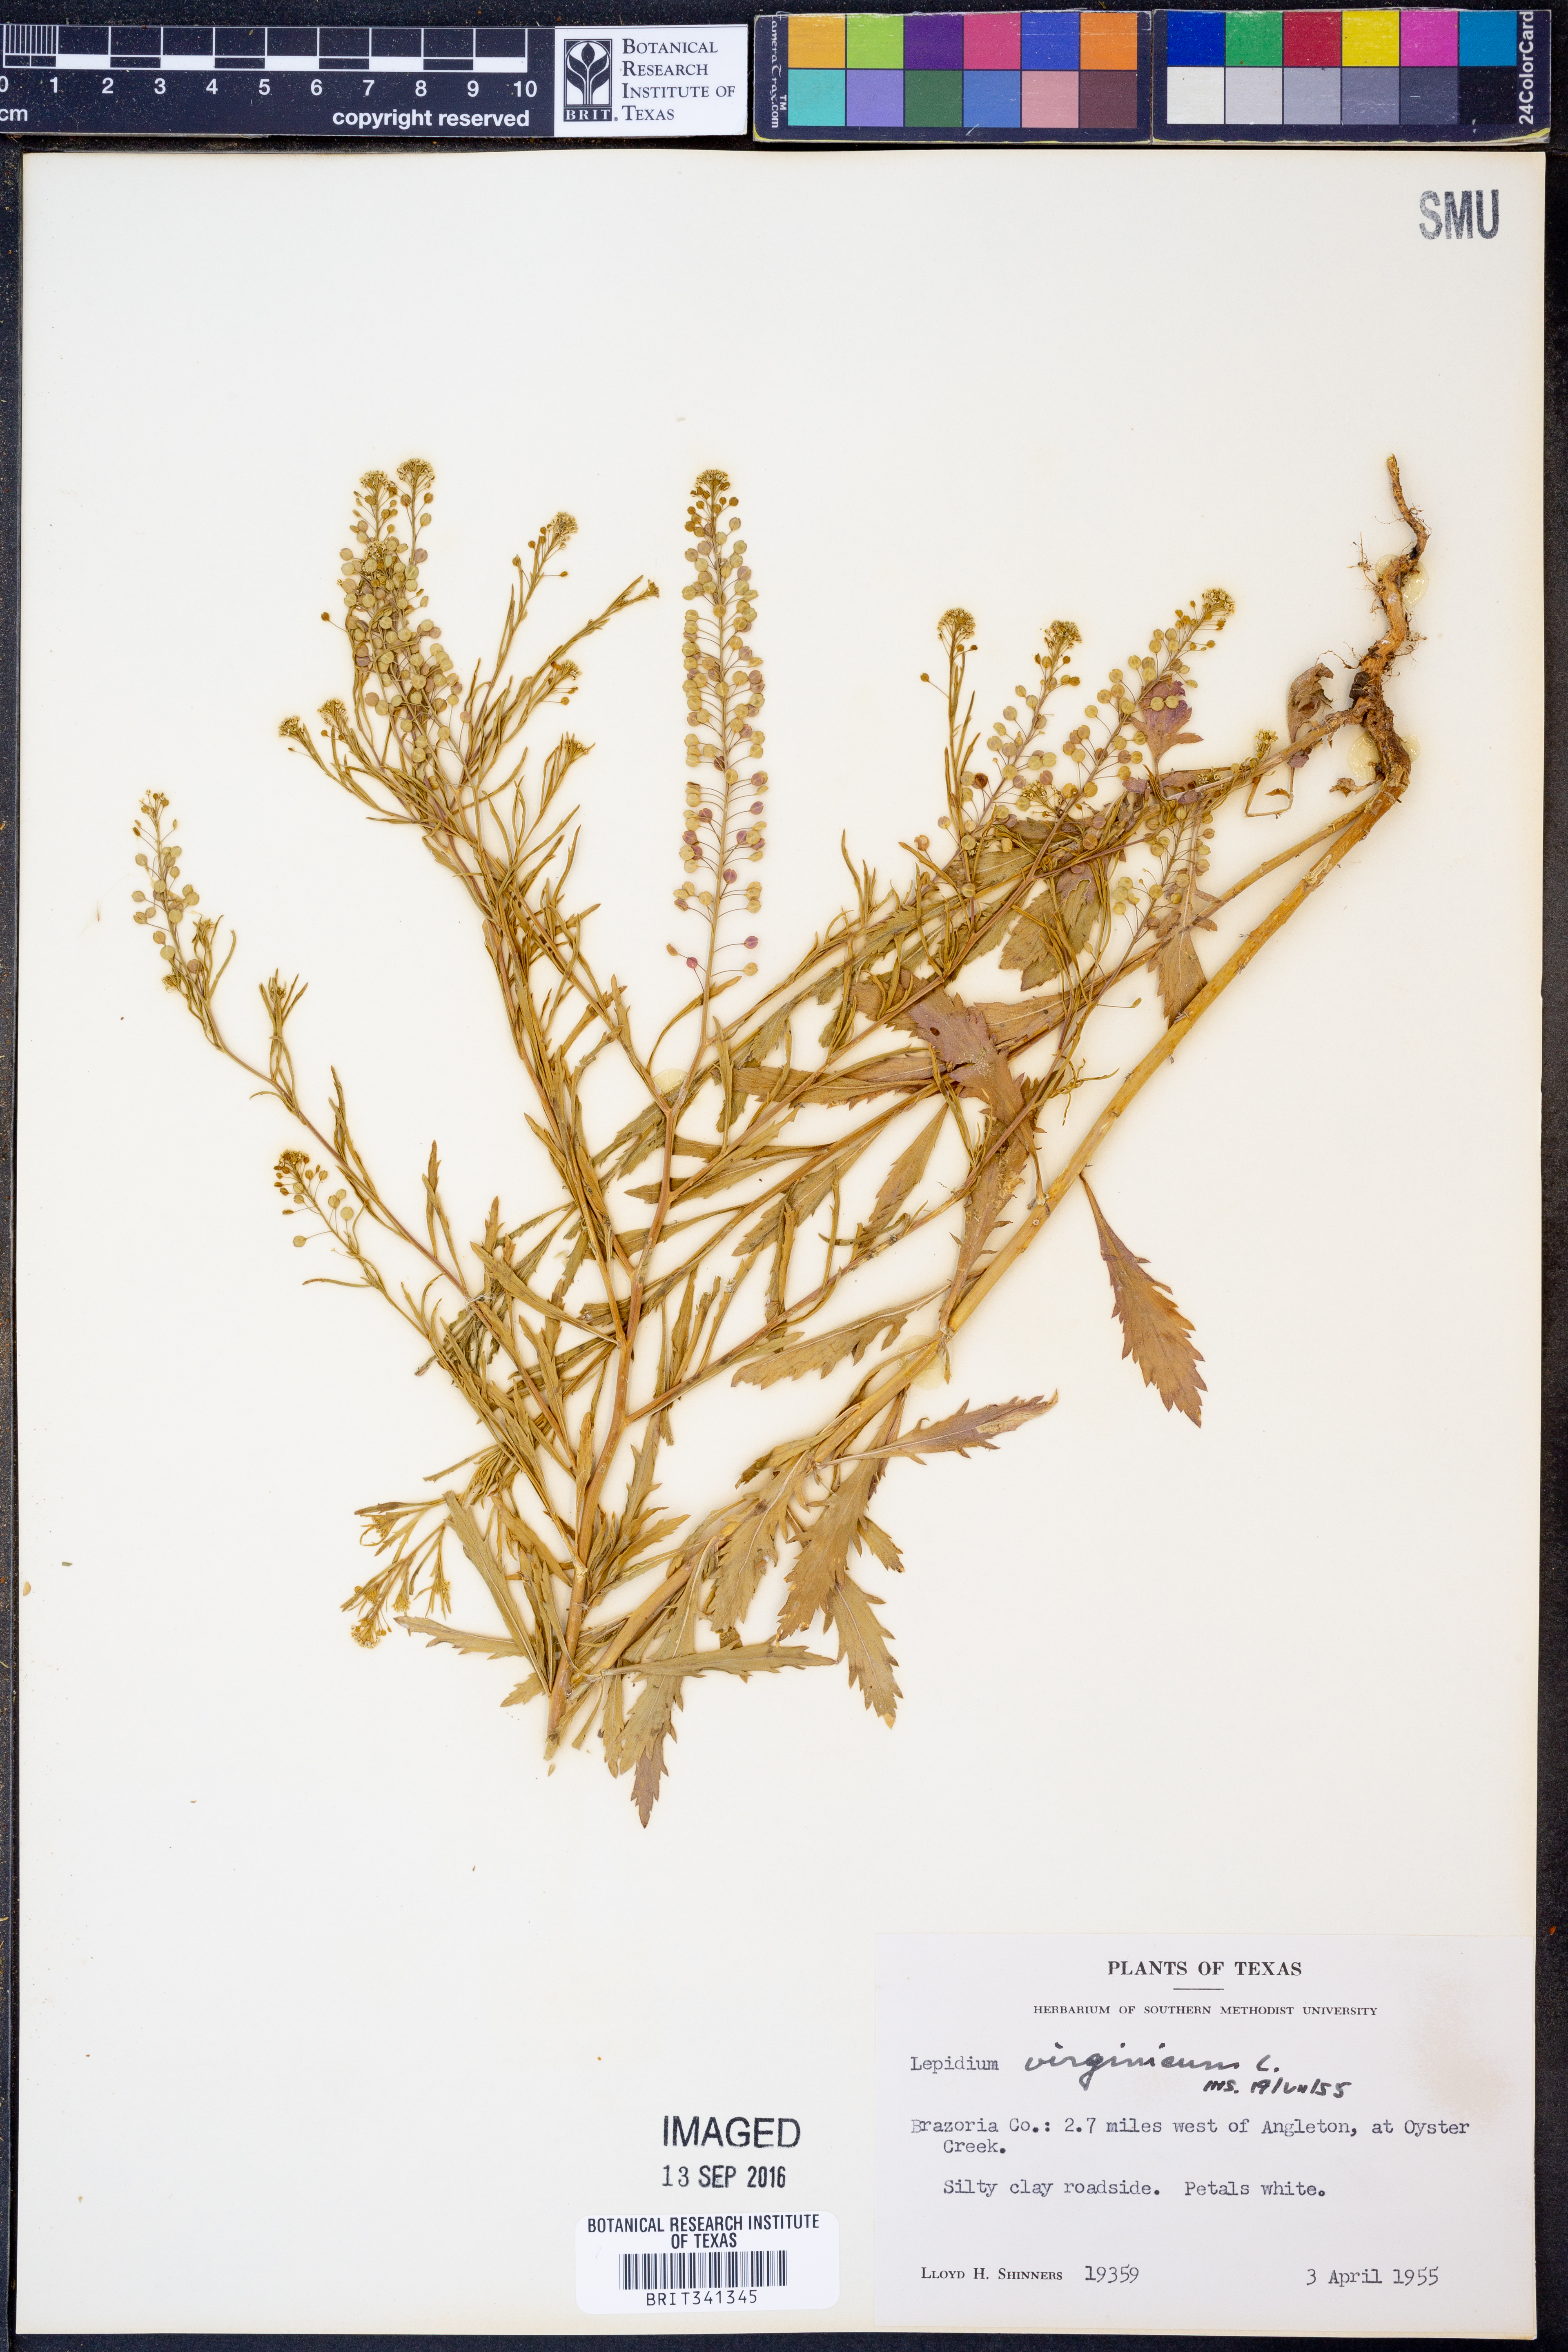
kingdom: Plantae
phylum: Tracheophyta
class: Magnoliopsida
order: Brassicales
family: Brassicaceae
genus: Lepidium
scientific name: Lepidium virginicum
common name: Least pepperwort
